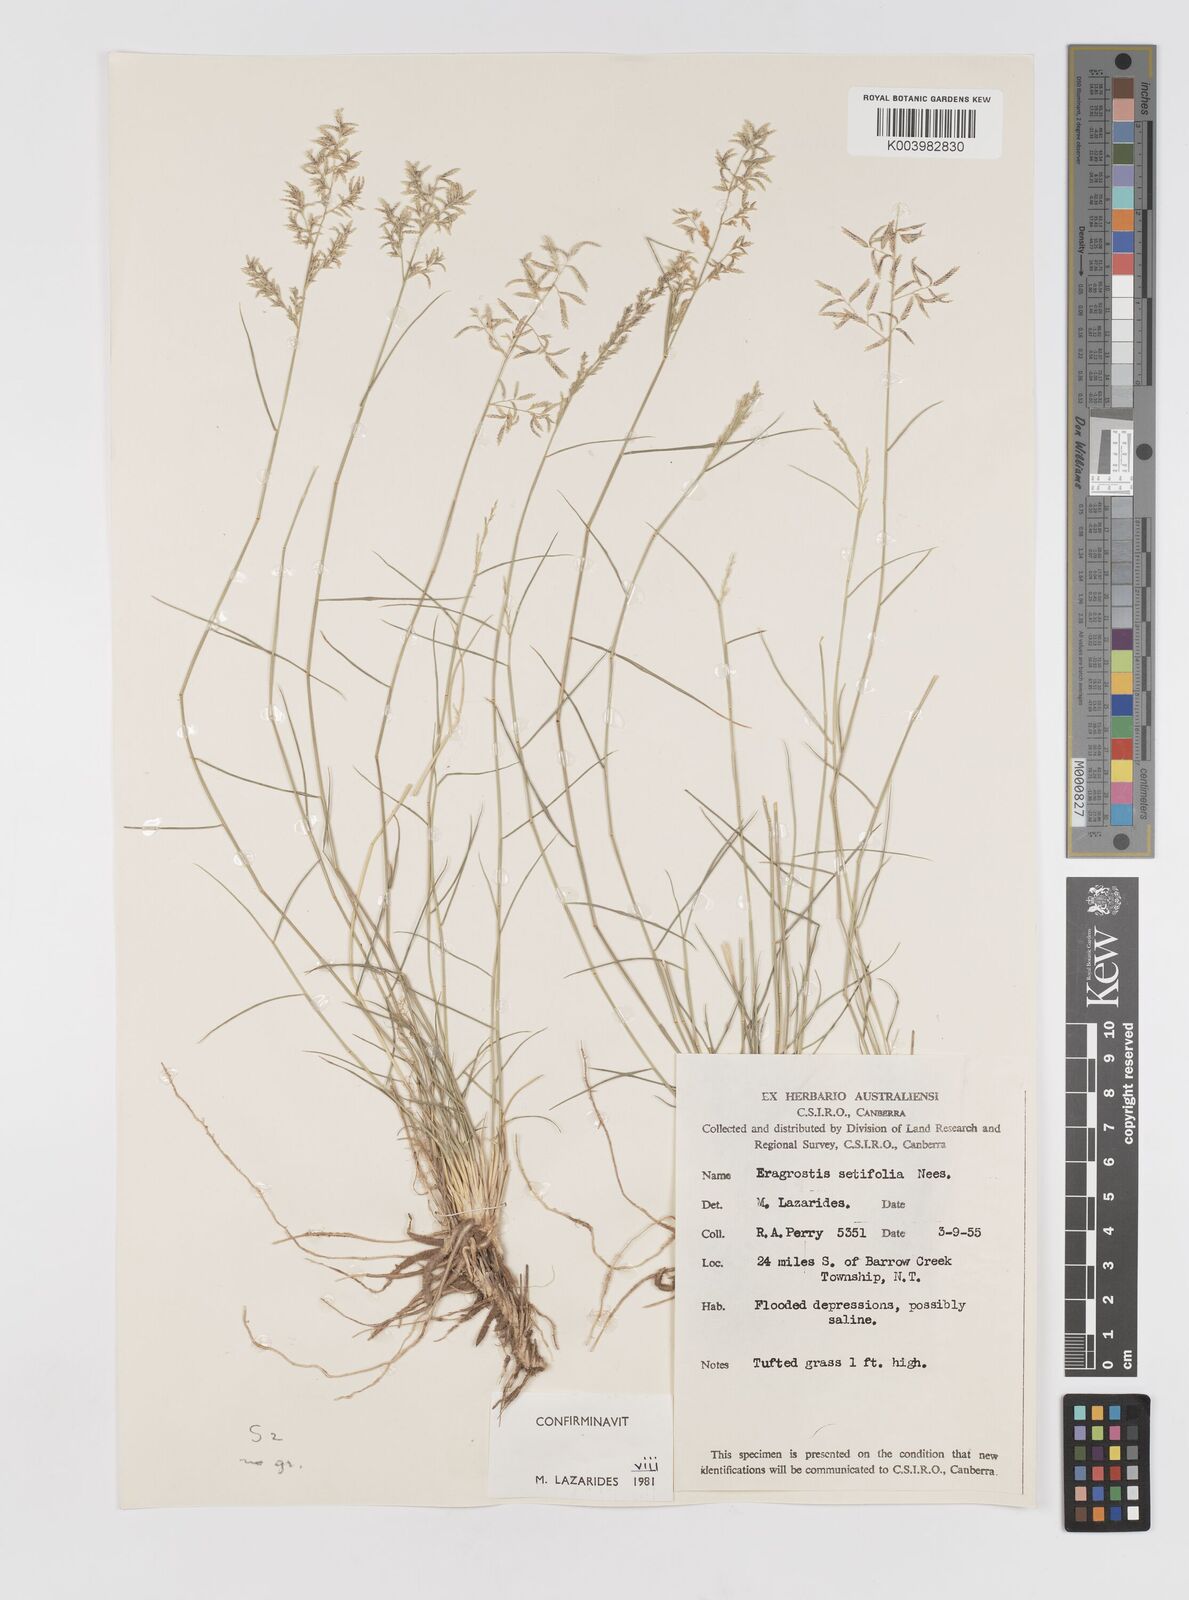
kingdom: Plantae
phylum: Tracheophyta
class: Liliopsida
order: Poales
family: Poaceae
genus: Eragrostis
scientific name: Eragrostis setifolia
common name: Bristleleaf lovegrass
